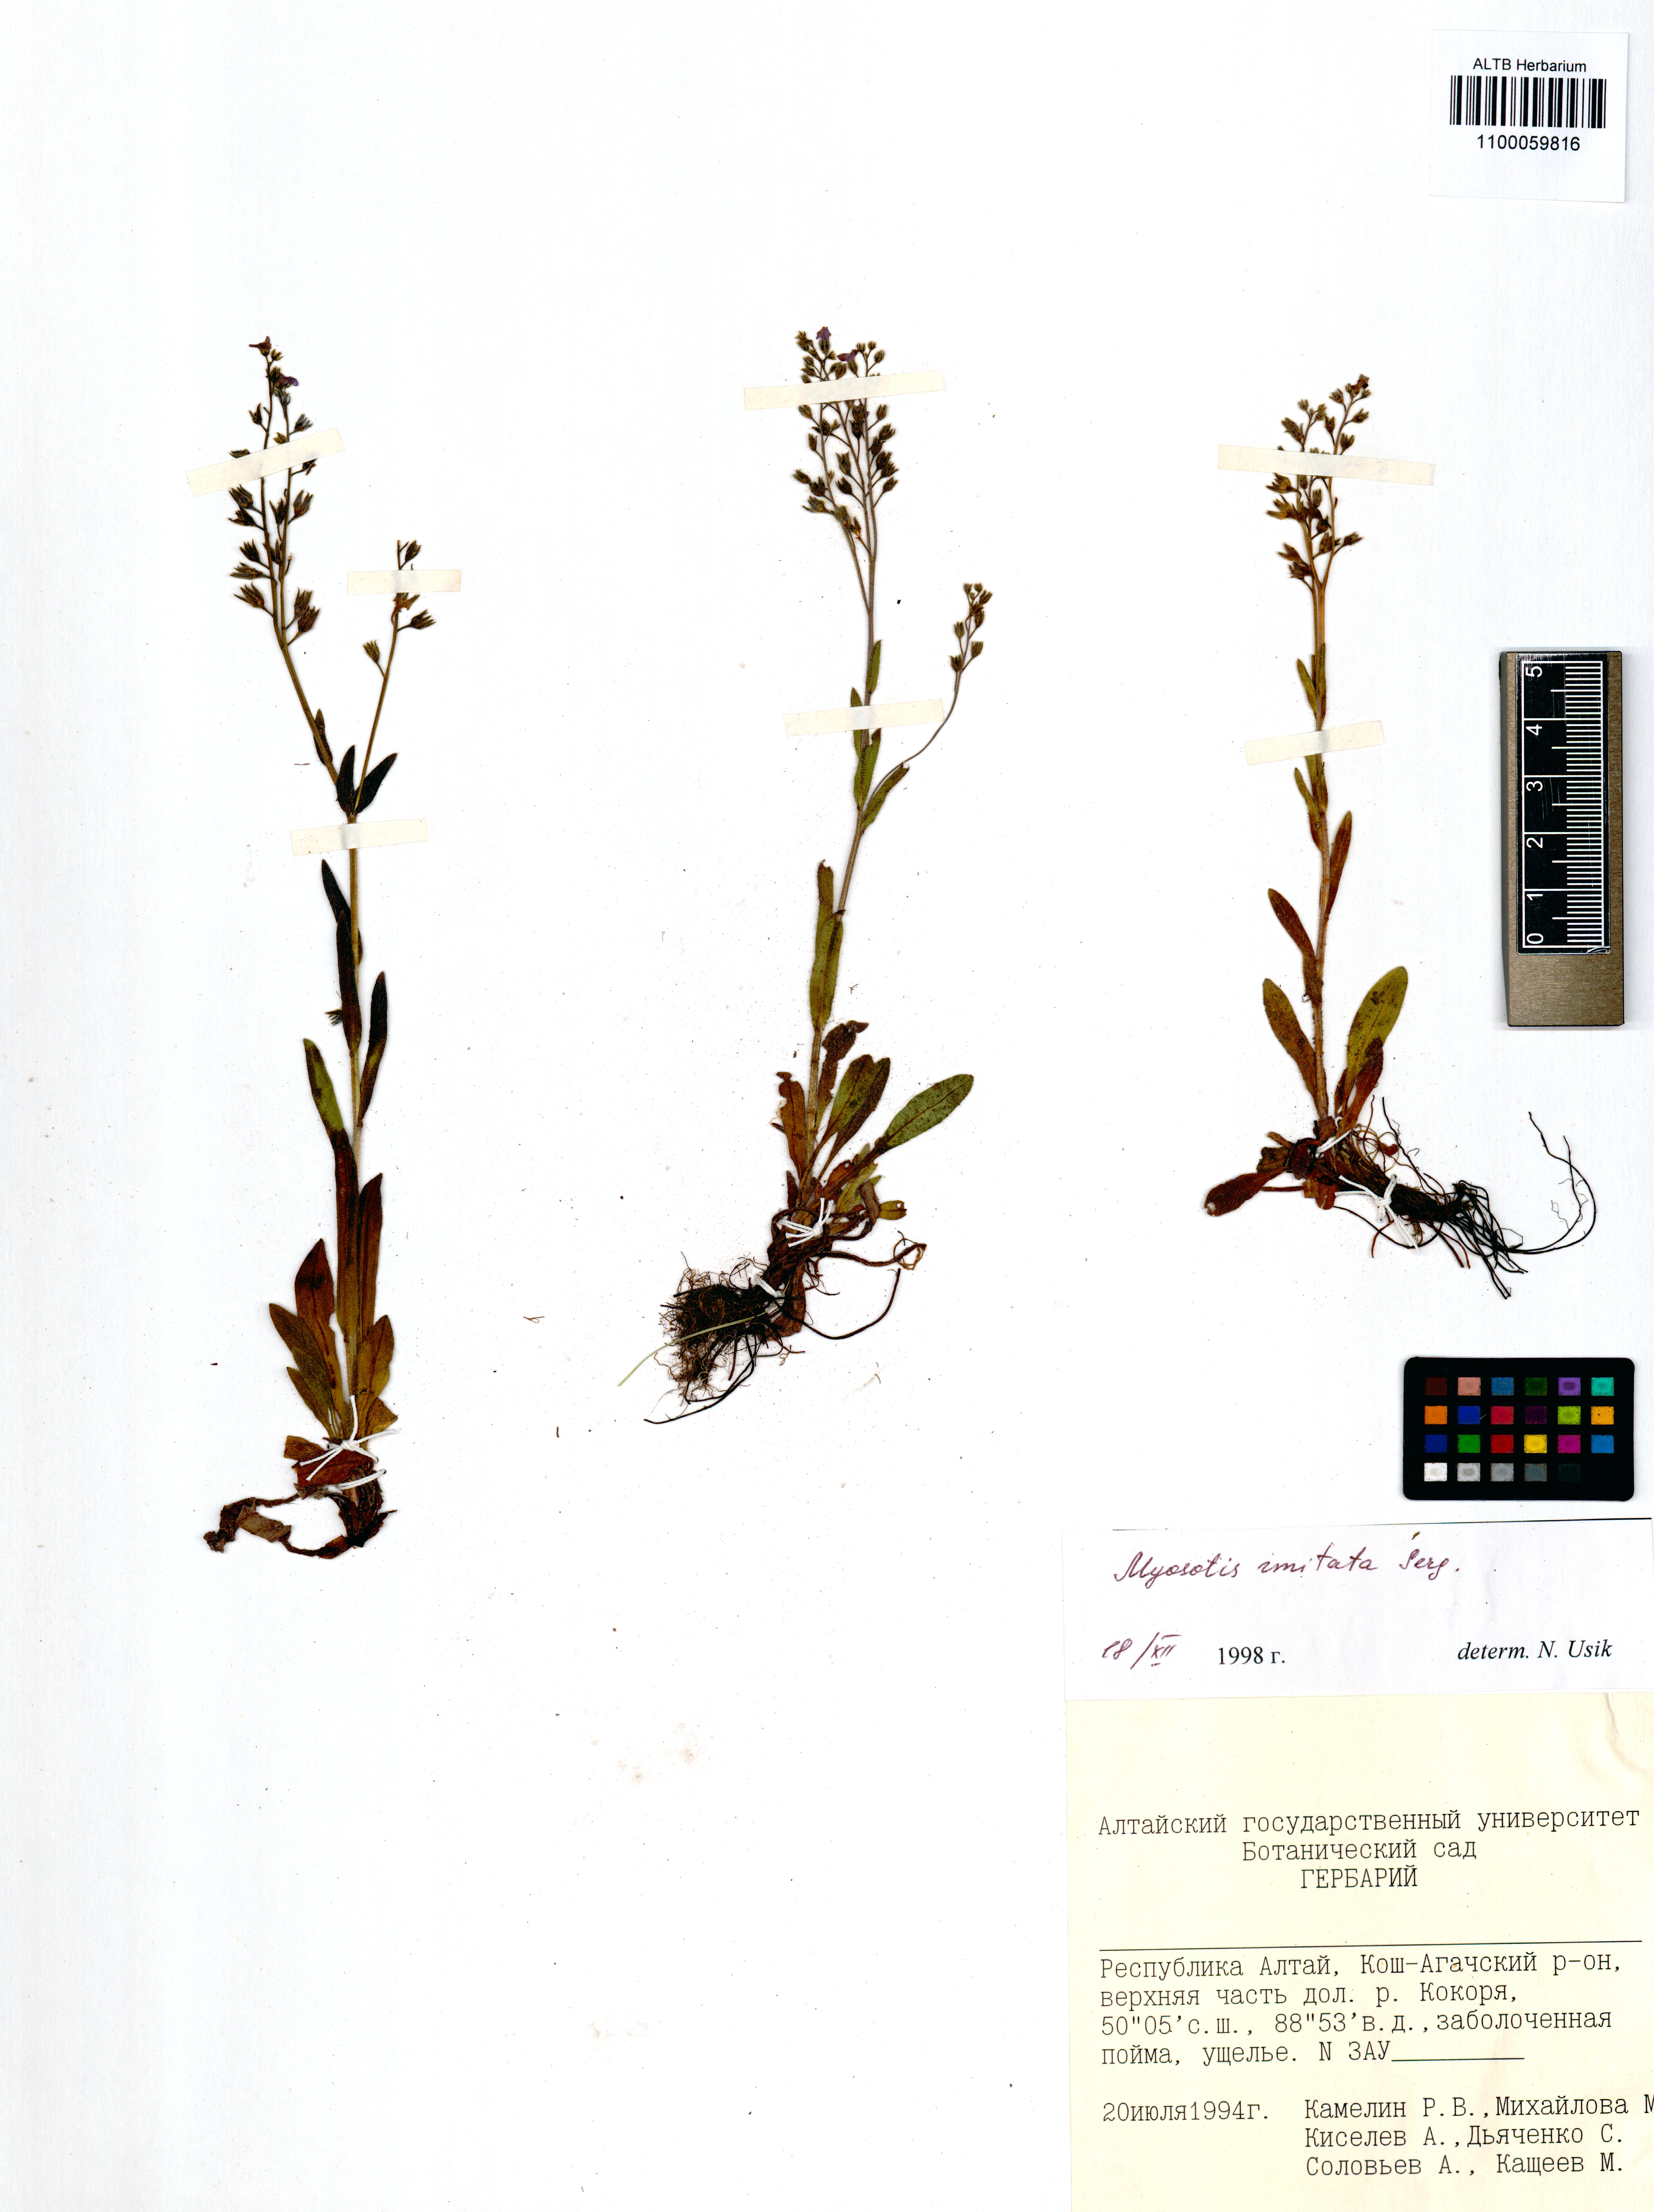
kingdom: Plantae
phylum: Tracheophyta
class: Magnoliopsida
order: Boraginales
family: Boraginaceae
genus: Myosotis
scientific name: Myosotis imitata
